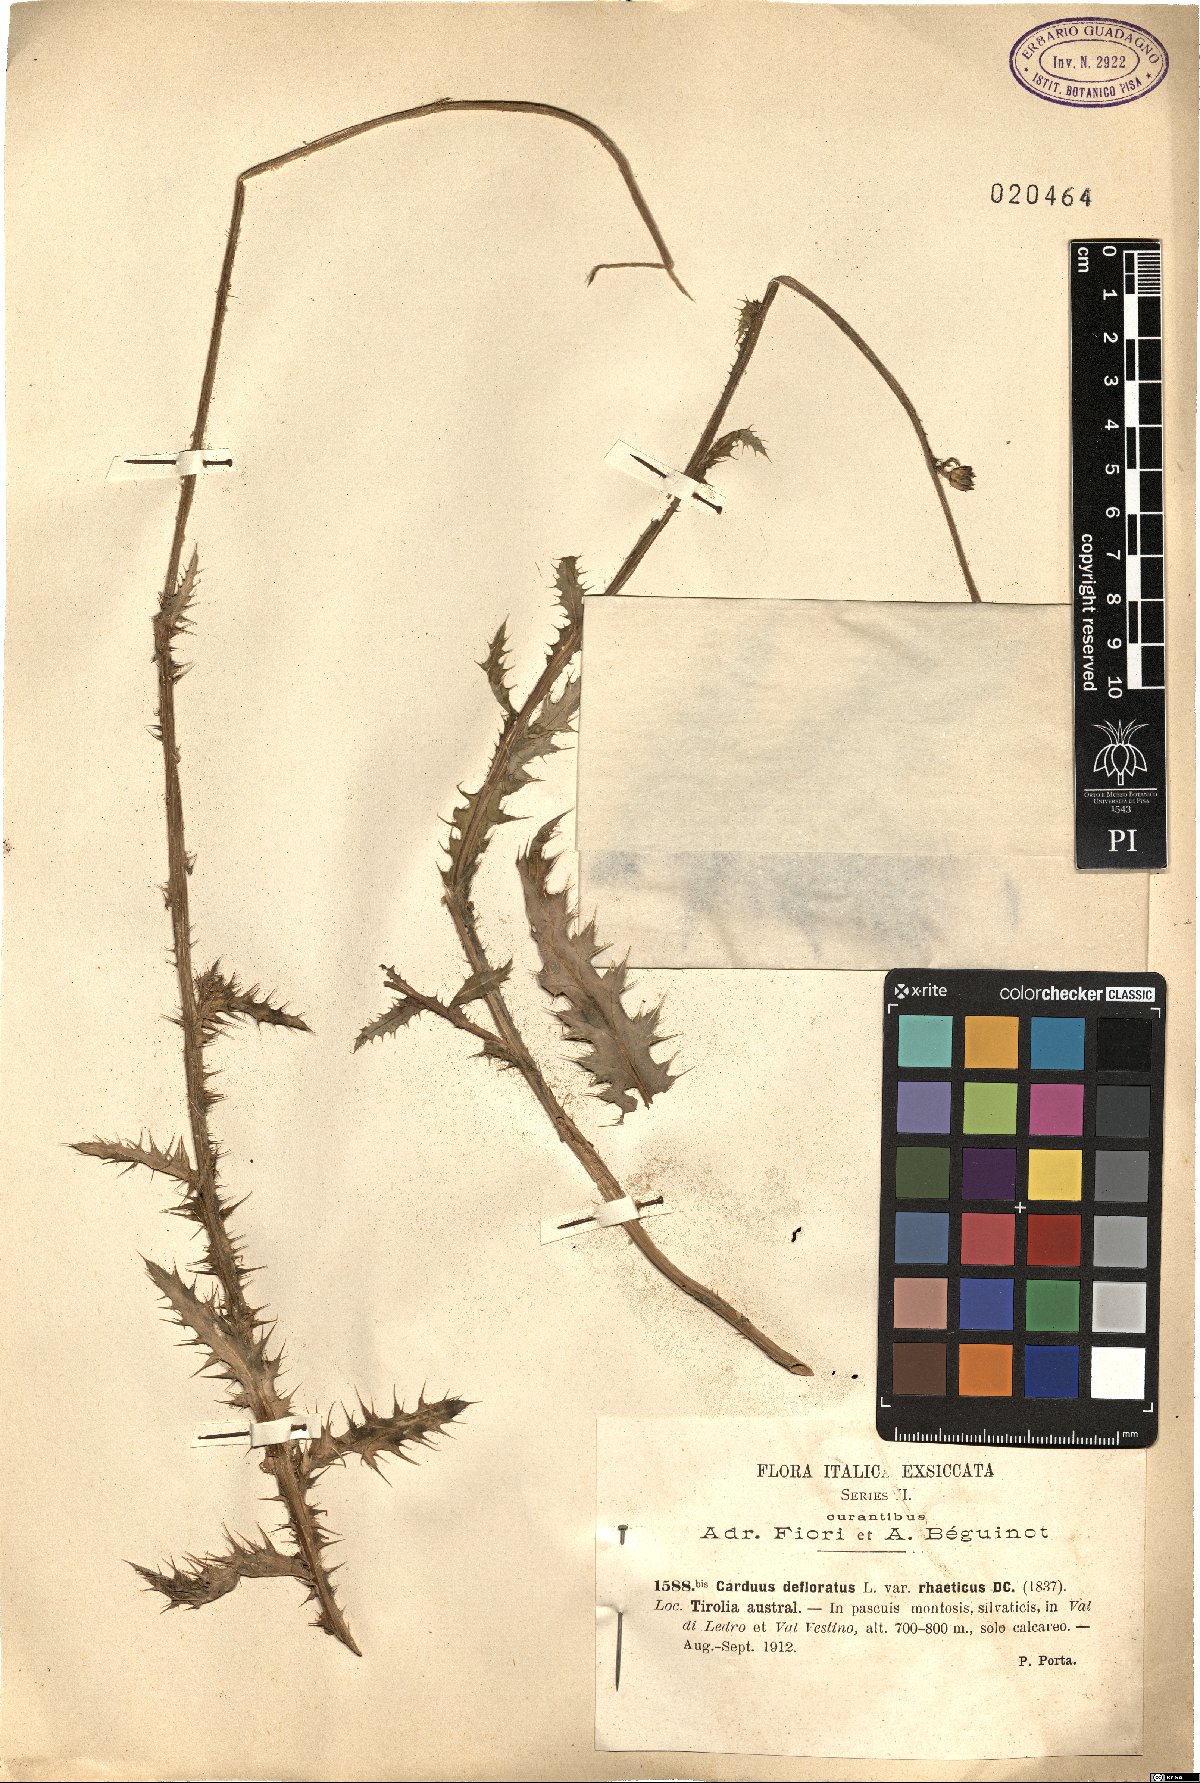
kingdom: Plantae
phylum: Tracheophyta
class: Magnoliopsida
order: Asterales
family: Asteraceae
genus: Carduus
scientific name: Carduus defloratus
